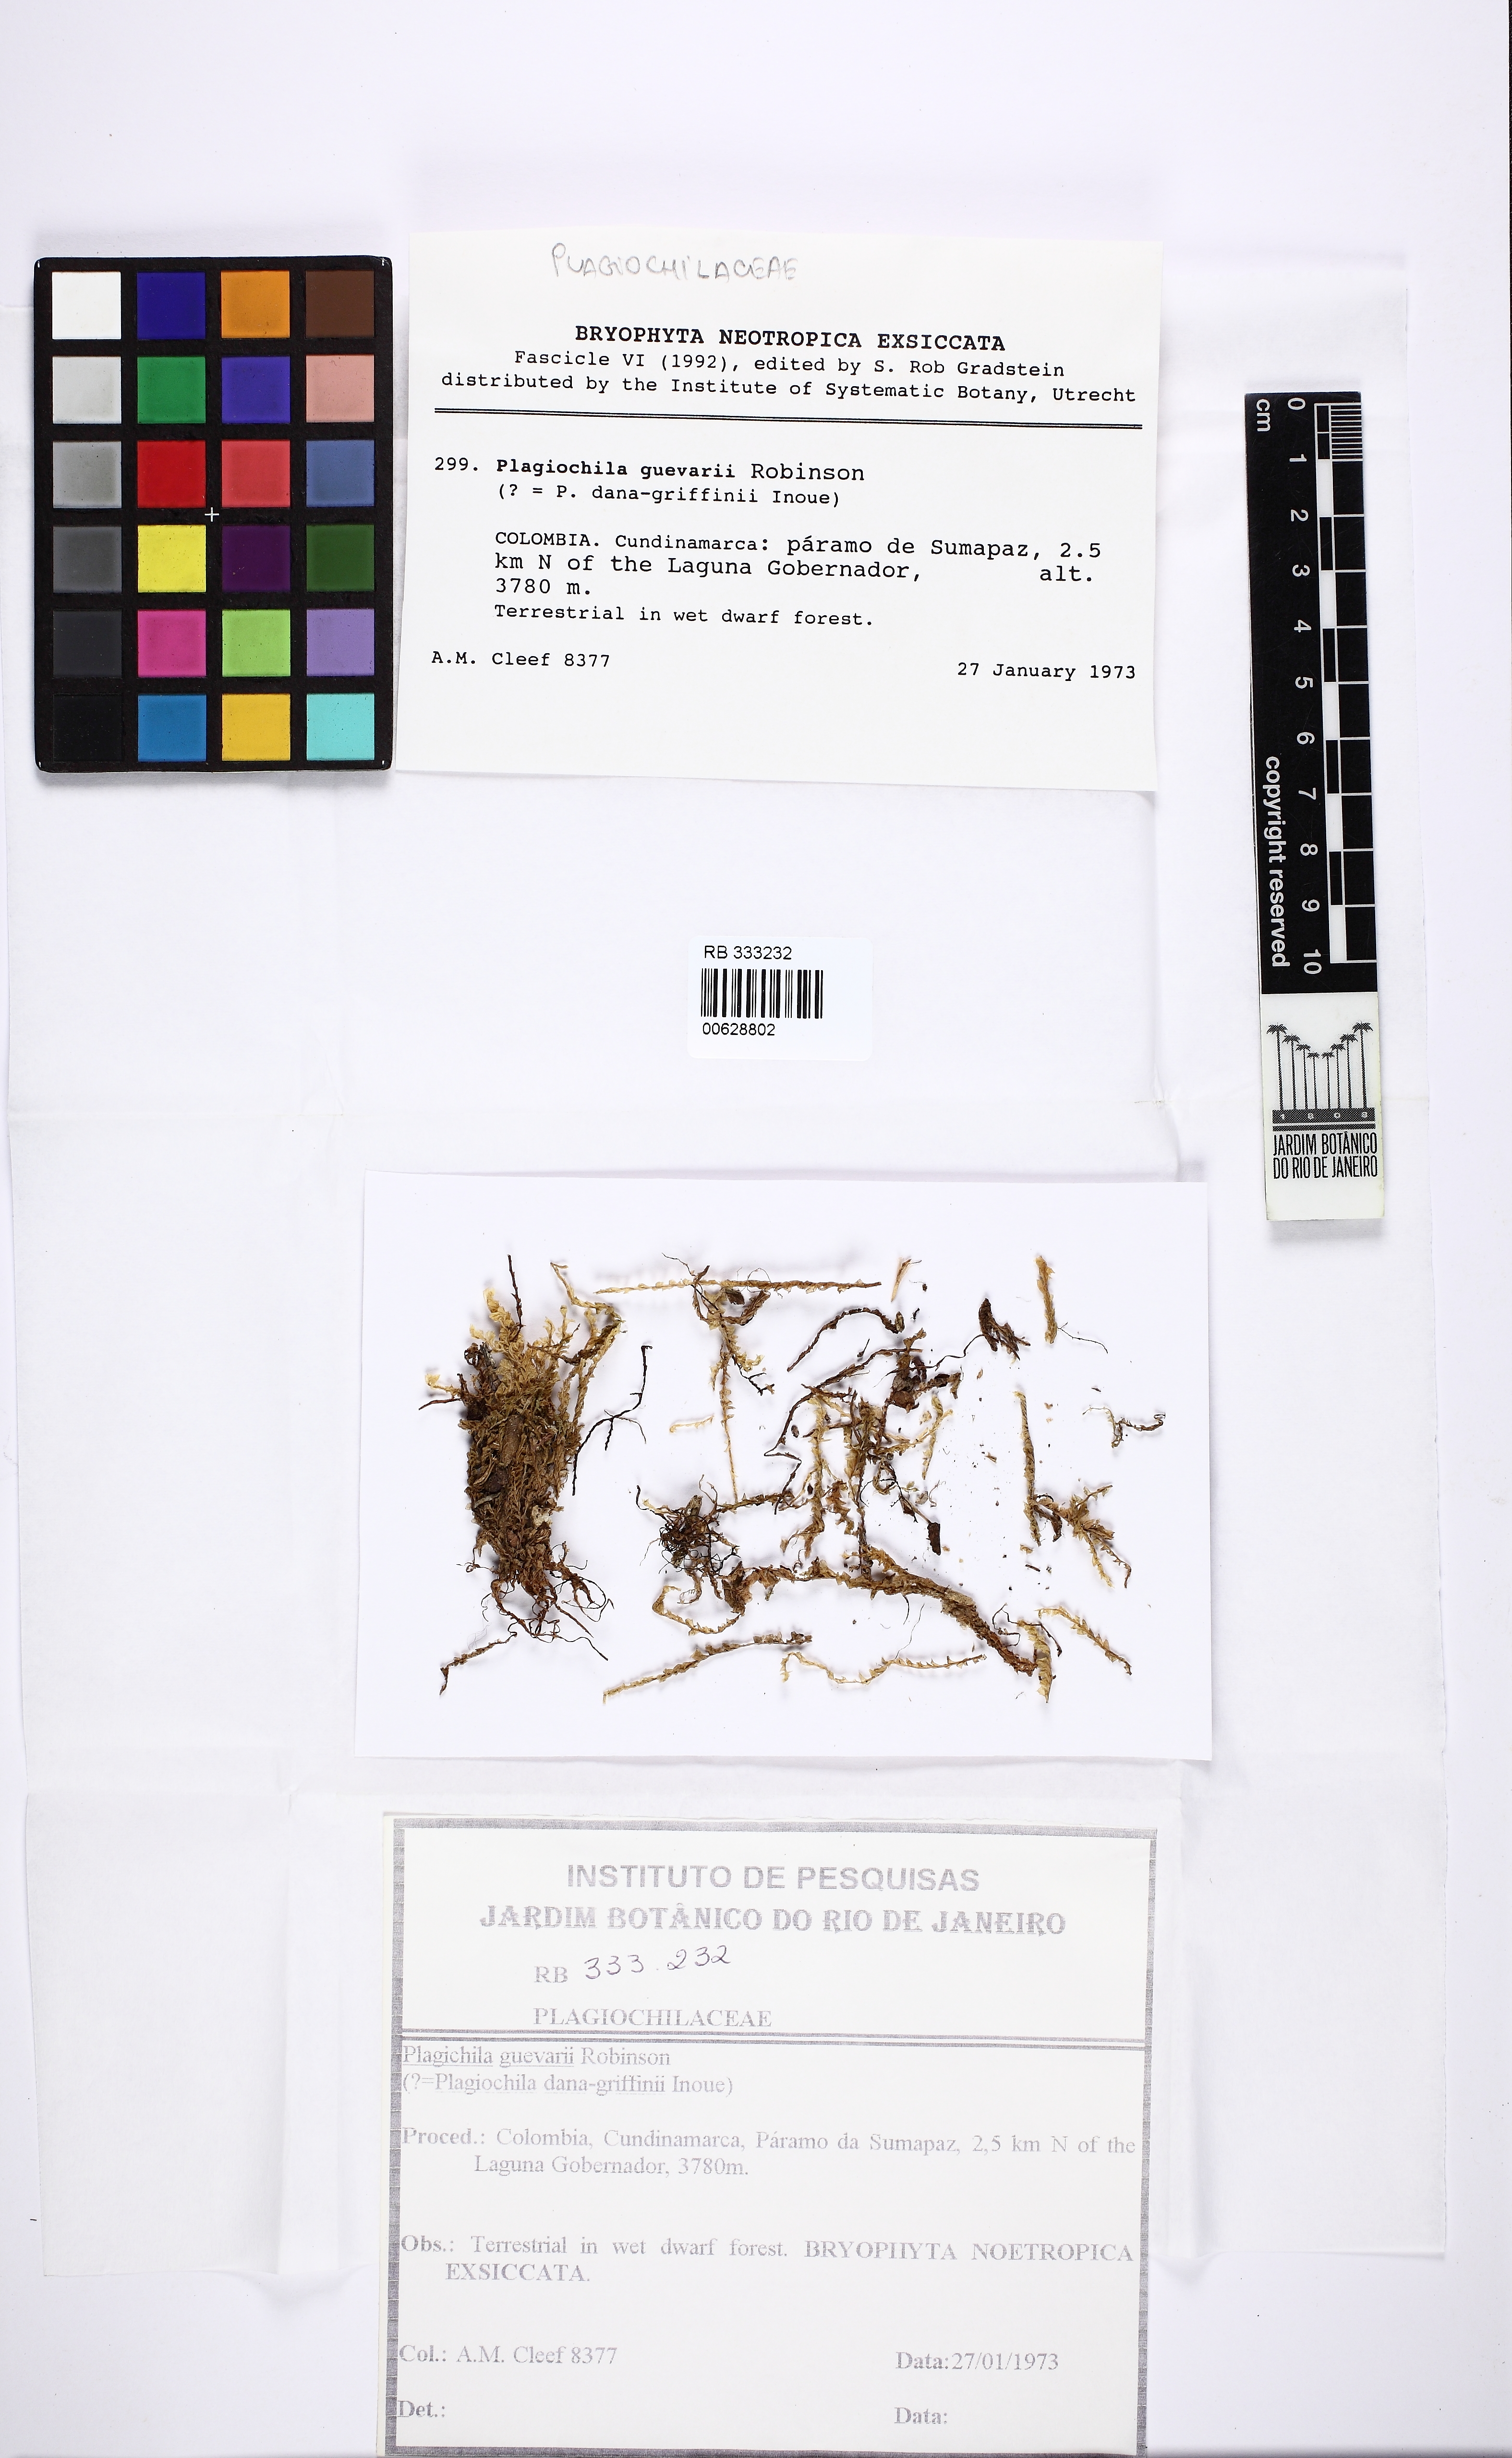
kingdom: Plantae
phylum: Marchantiophyta
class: Jungermanniopsida
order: Jungermanniales
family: Plagiochilaceae
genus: Plagiochila
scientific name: Plagiochila guevarii
